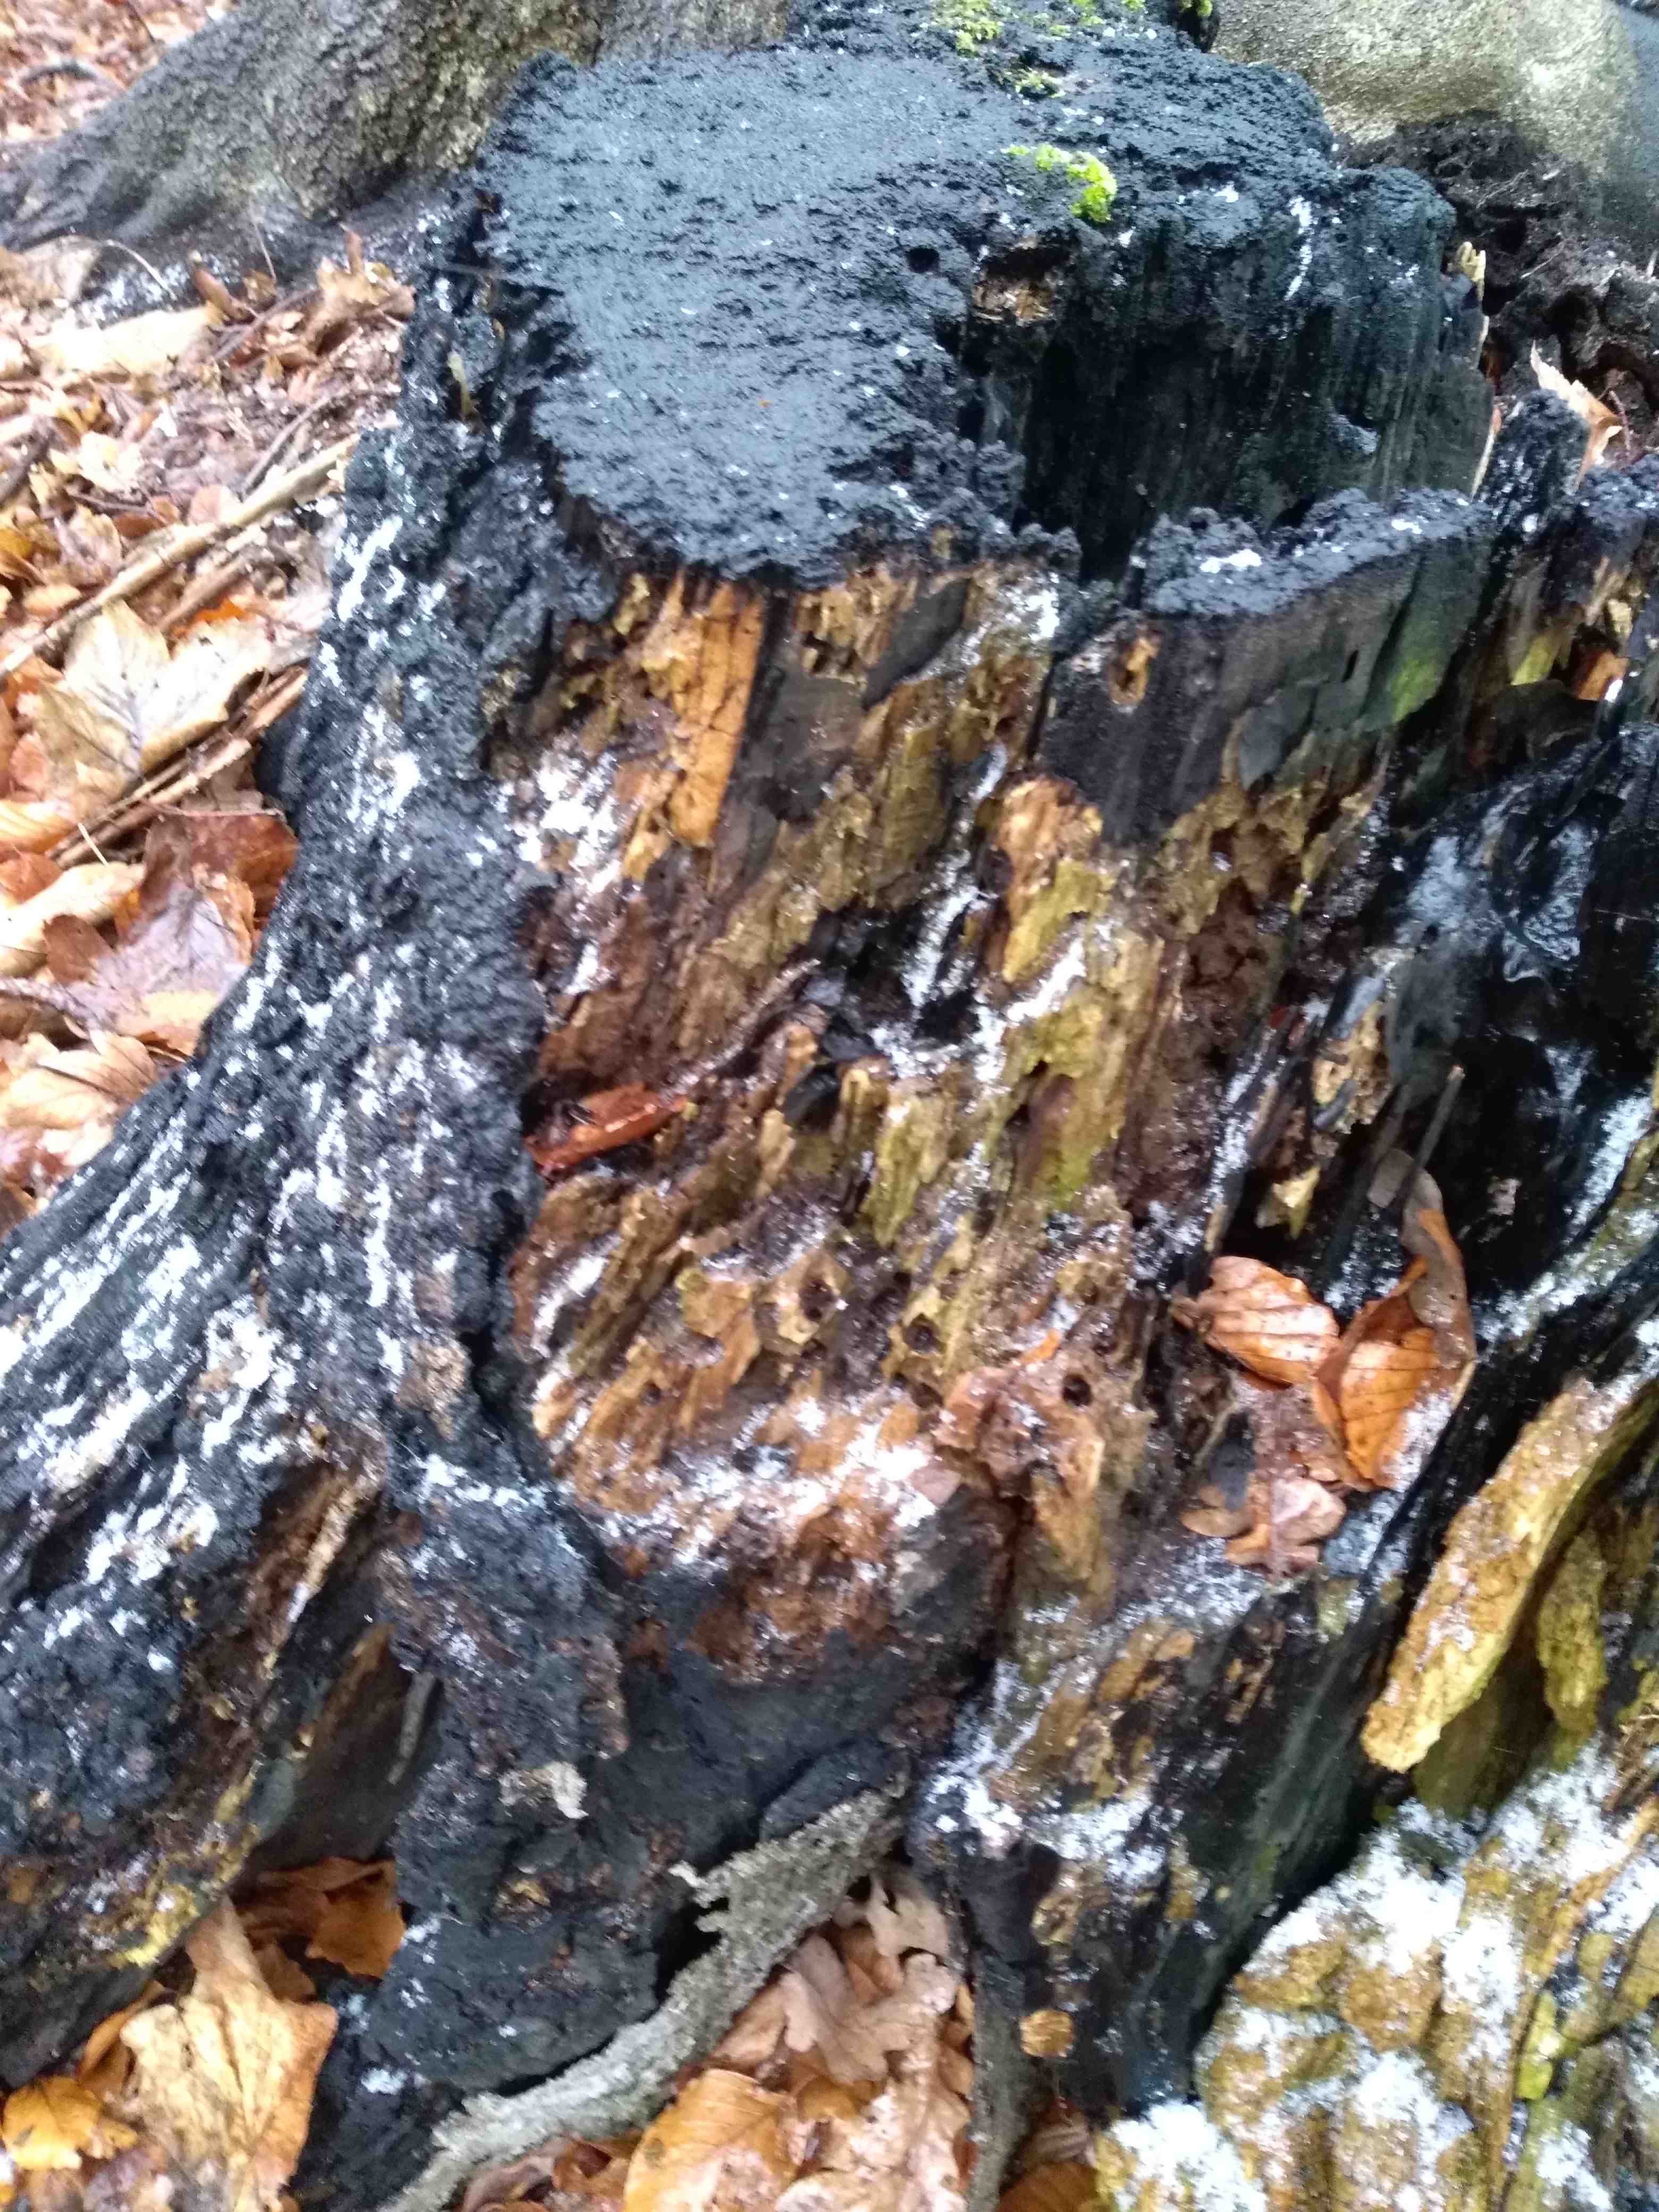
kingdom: Fungi
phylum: Ascomycota
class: Sordariomycetes
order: Xylariales
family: Xylariaceae
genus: Kretzschmaria
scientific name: Kretzschmaria deusta
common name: stor kulsvamp
